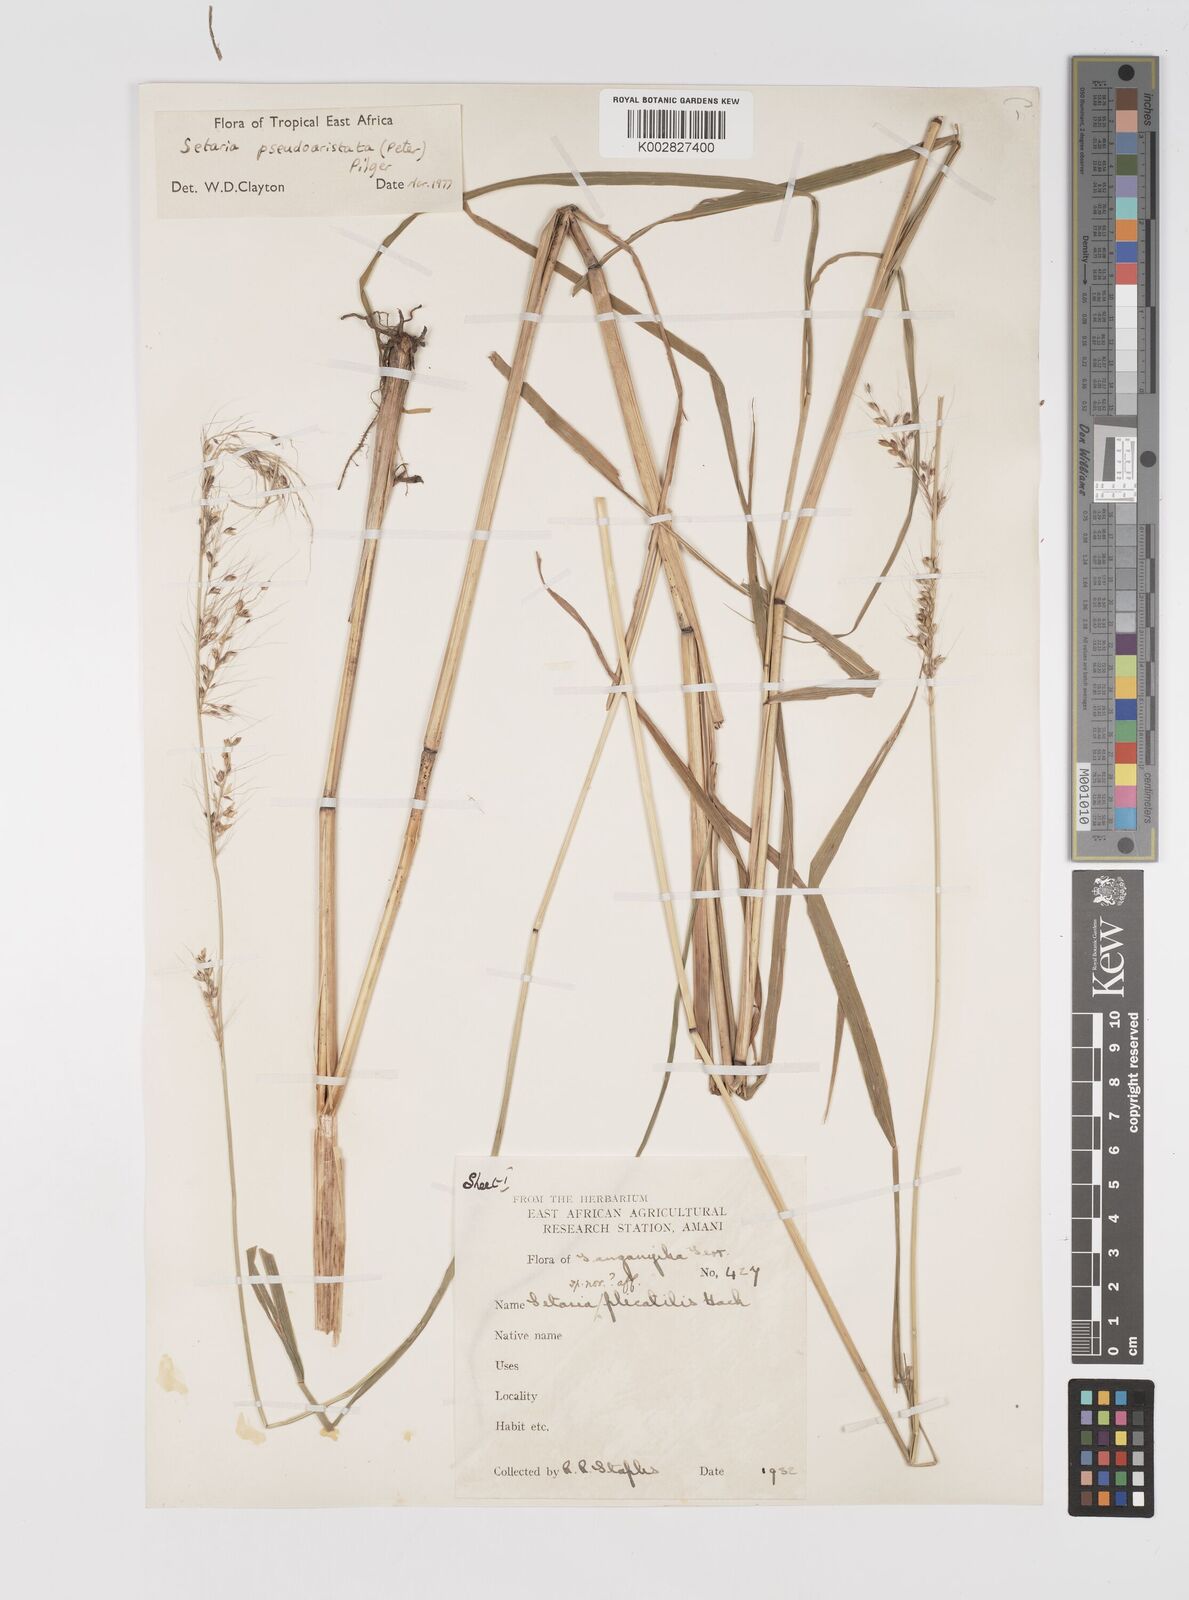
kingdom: Plantae
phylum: Tracheophyta
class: Liliopsida
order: Poales
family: Poaceae
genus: Setaria
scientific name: Setaria pseudaristata
